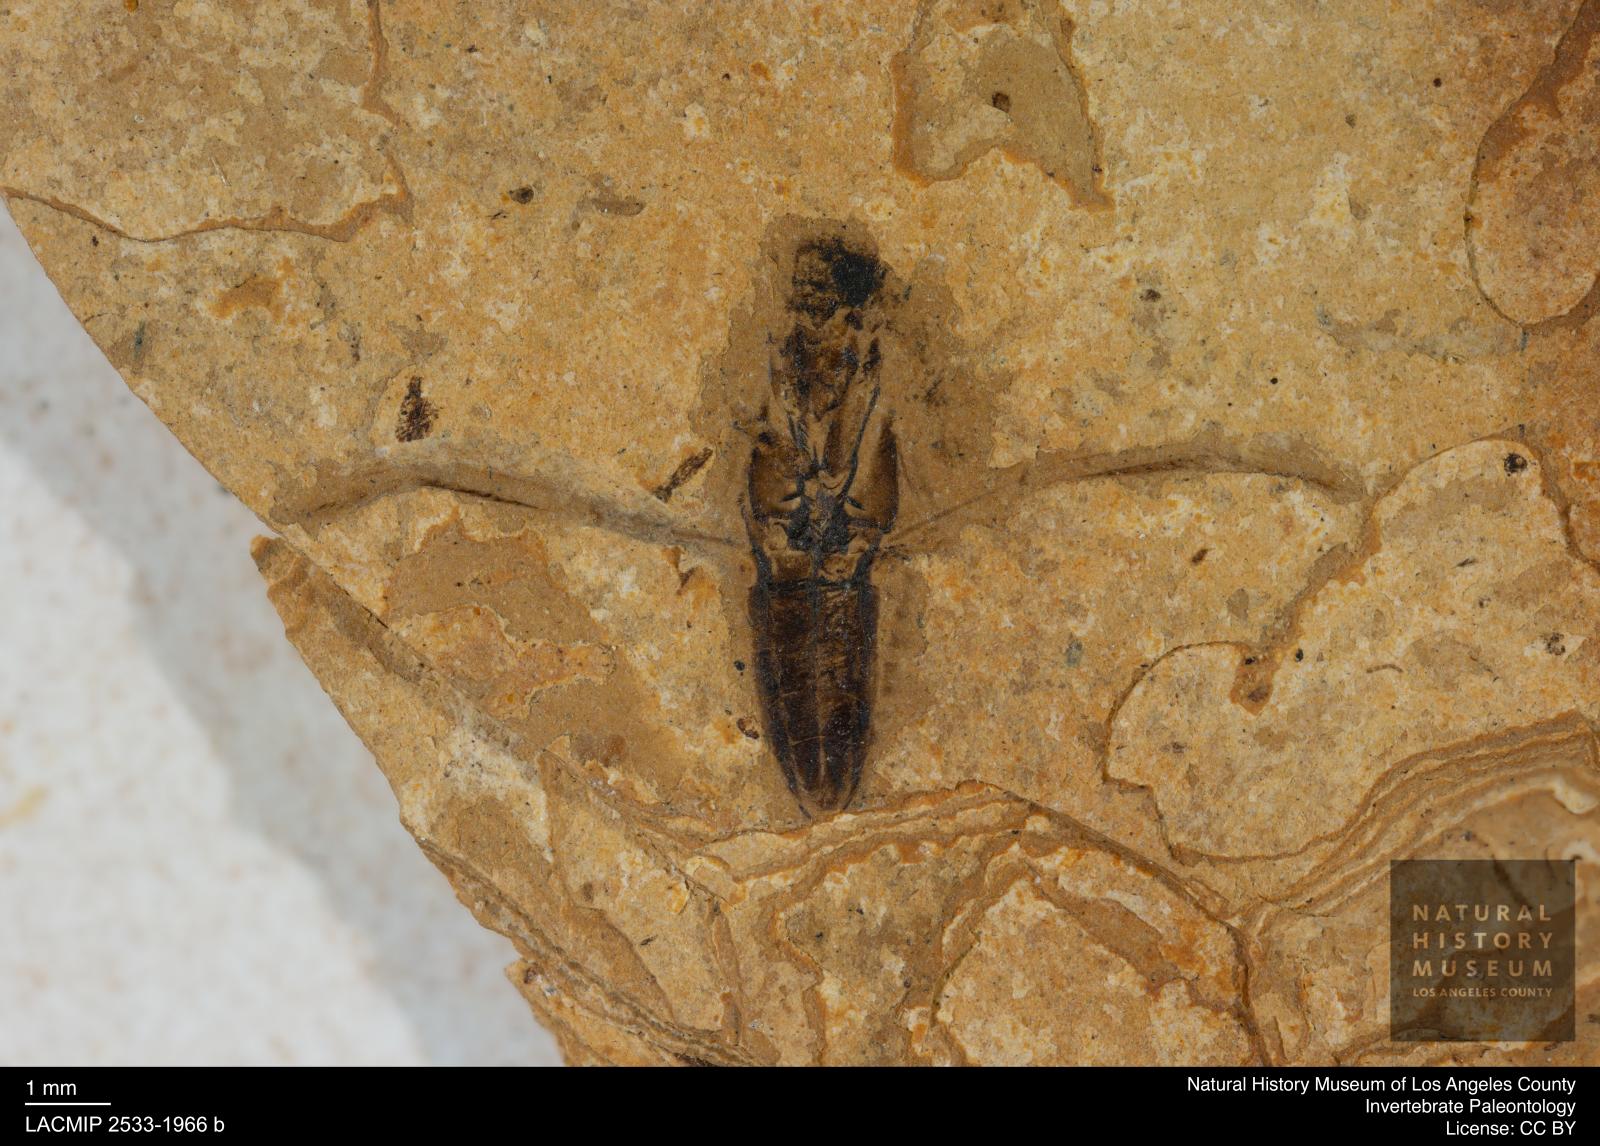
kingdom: Animalia
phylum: Arthropoda
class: Insecta
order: Hemiptera
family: Notonectidae
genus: Anisops
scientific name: Anisops Notonecta deichmuelleri
